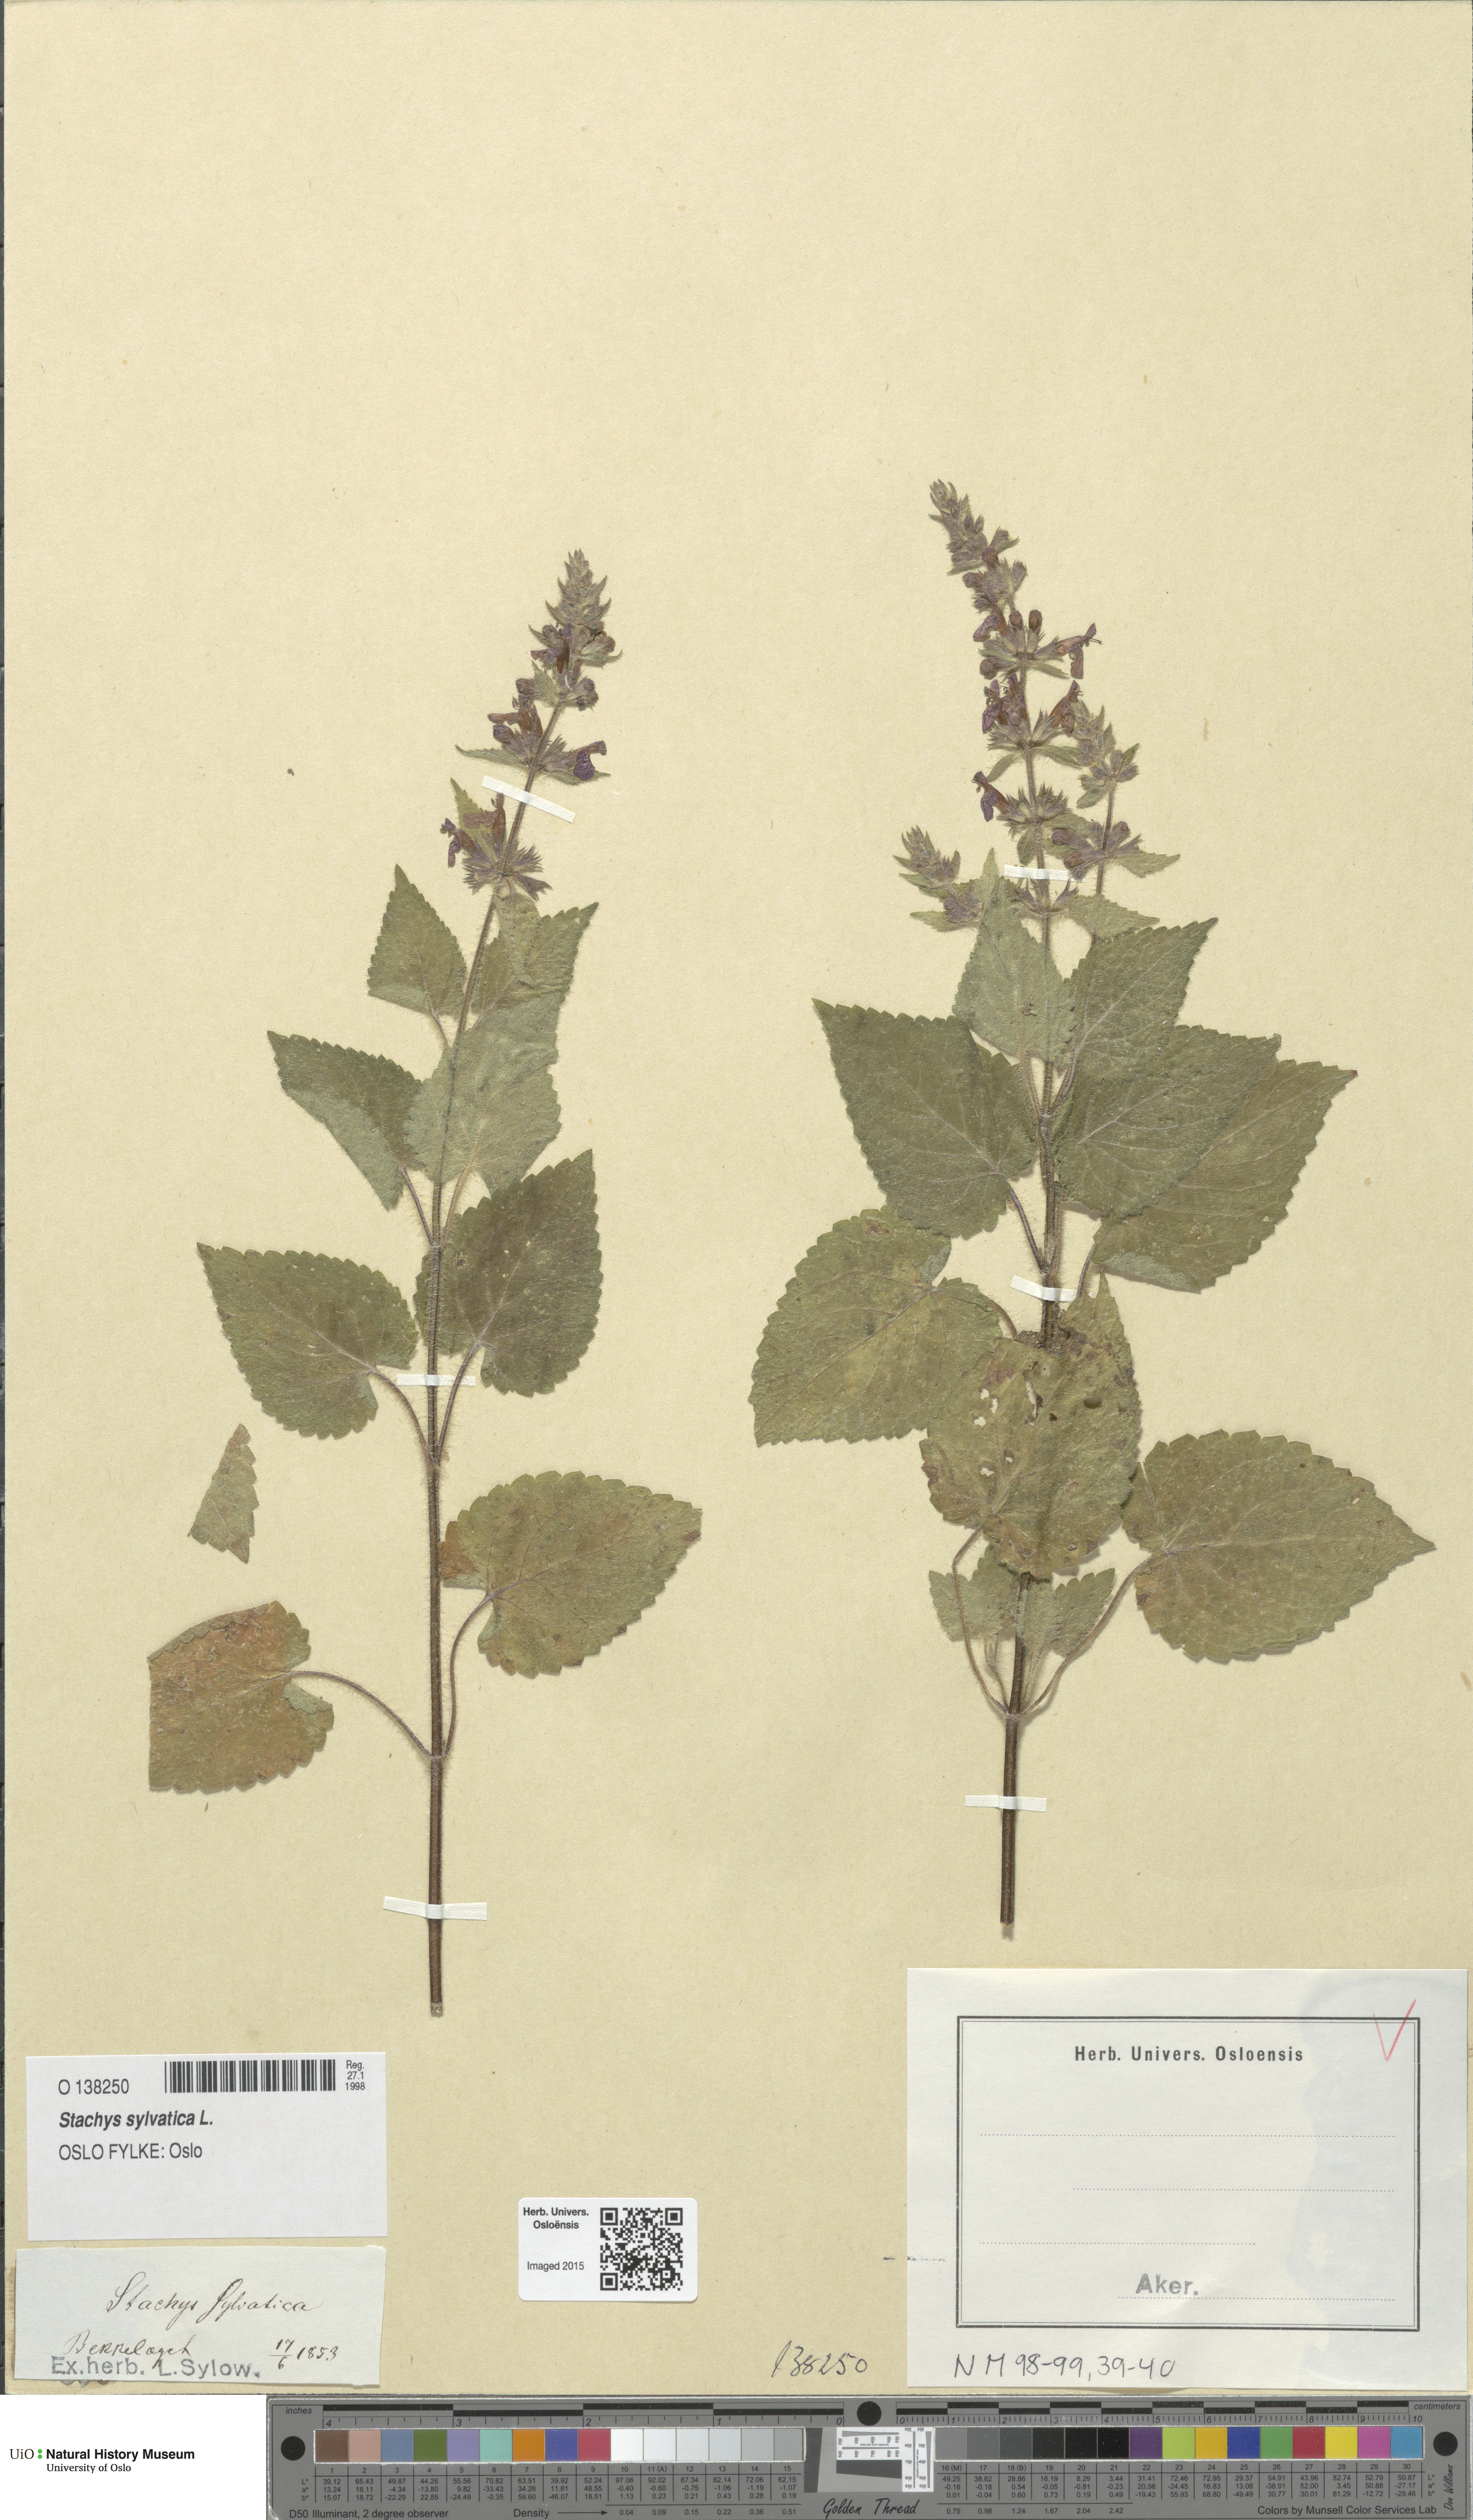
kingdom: Plantae
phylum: Tracheophyta
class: Magnoliopsida
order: Lamiales
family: Lamiaceae
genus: Stachys
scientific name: Stachys sylvatica
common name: Hedge woundwort
